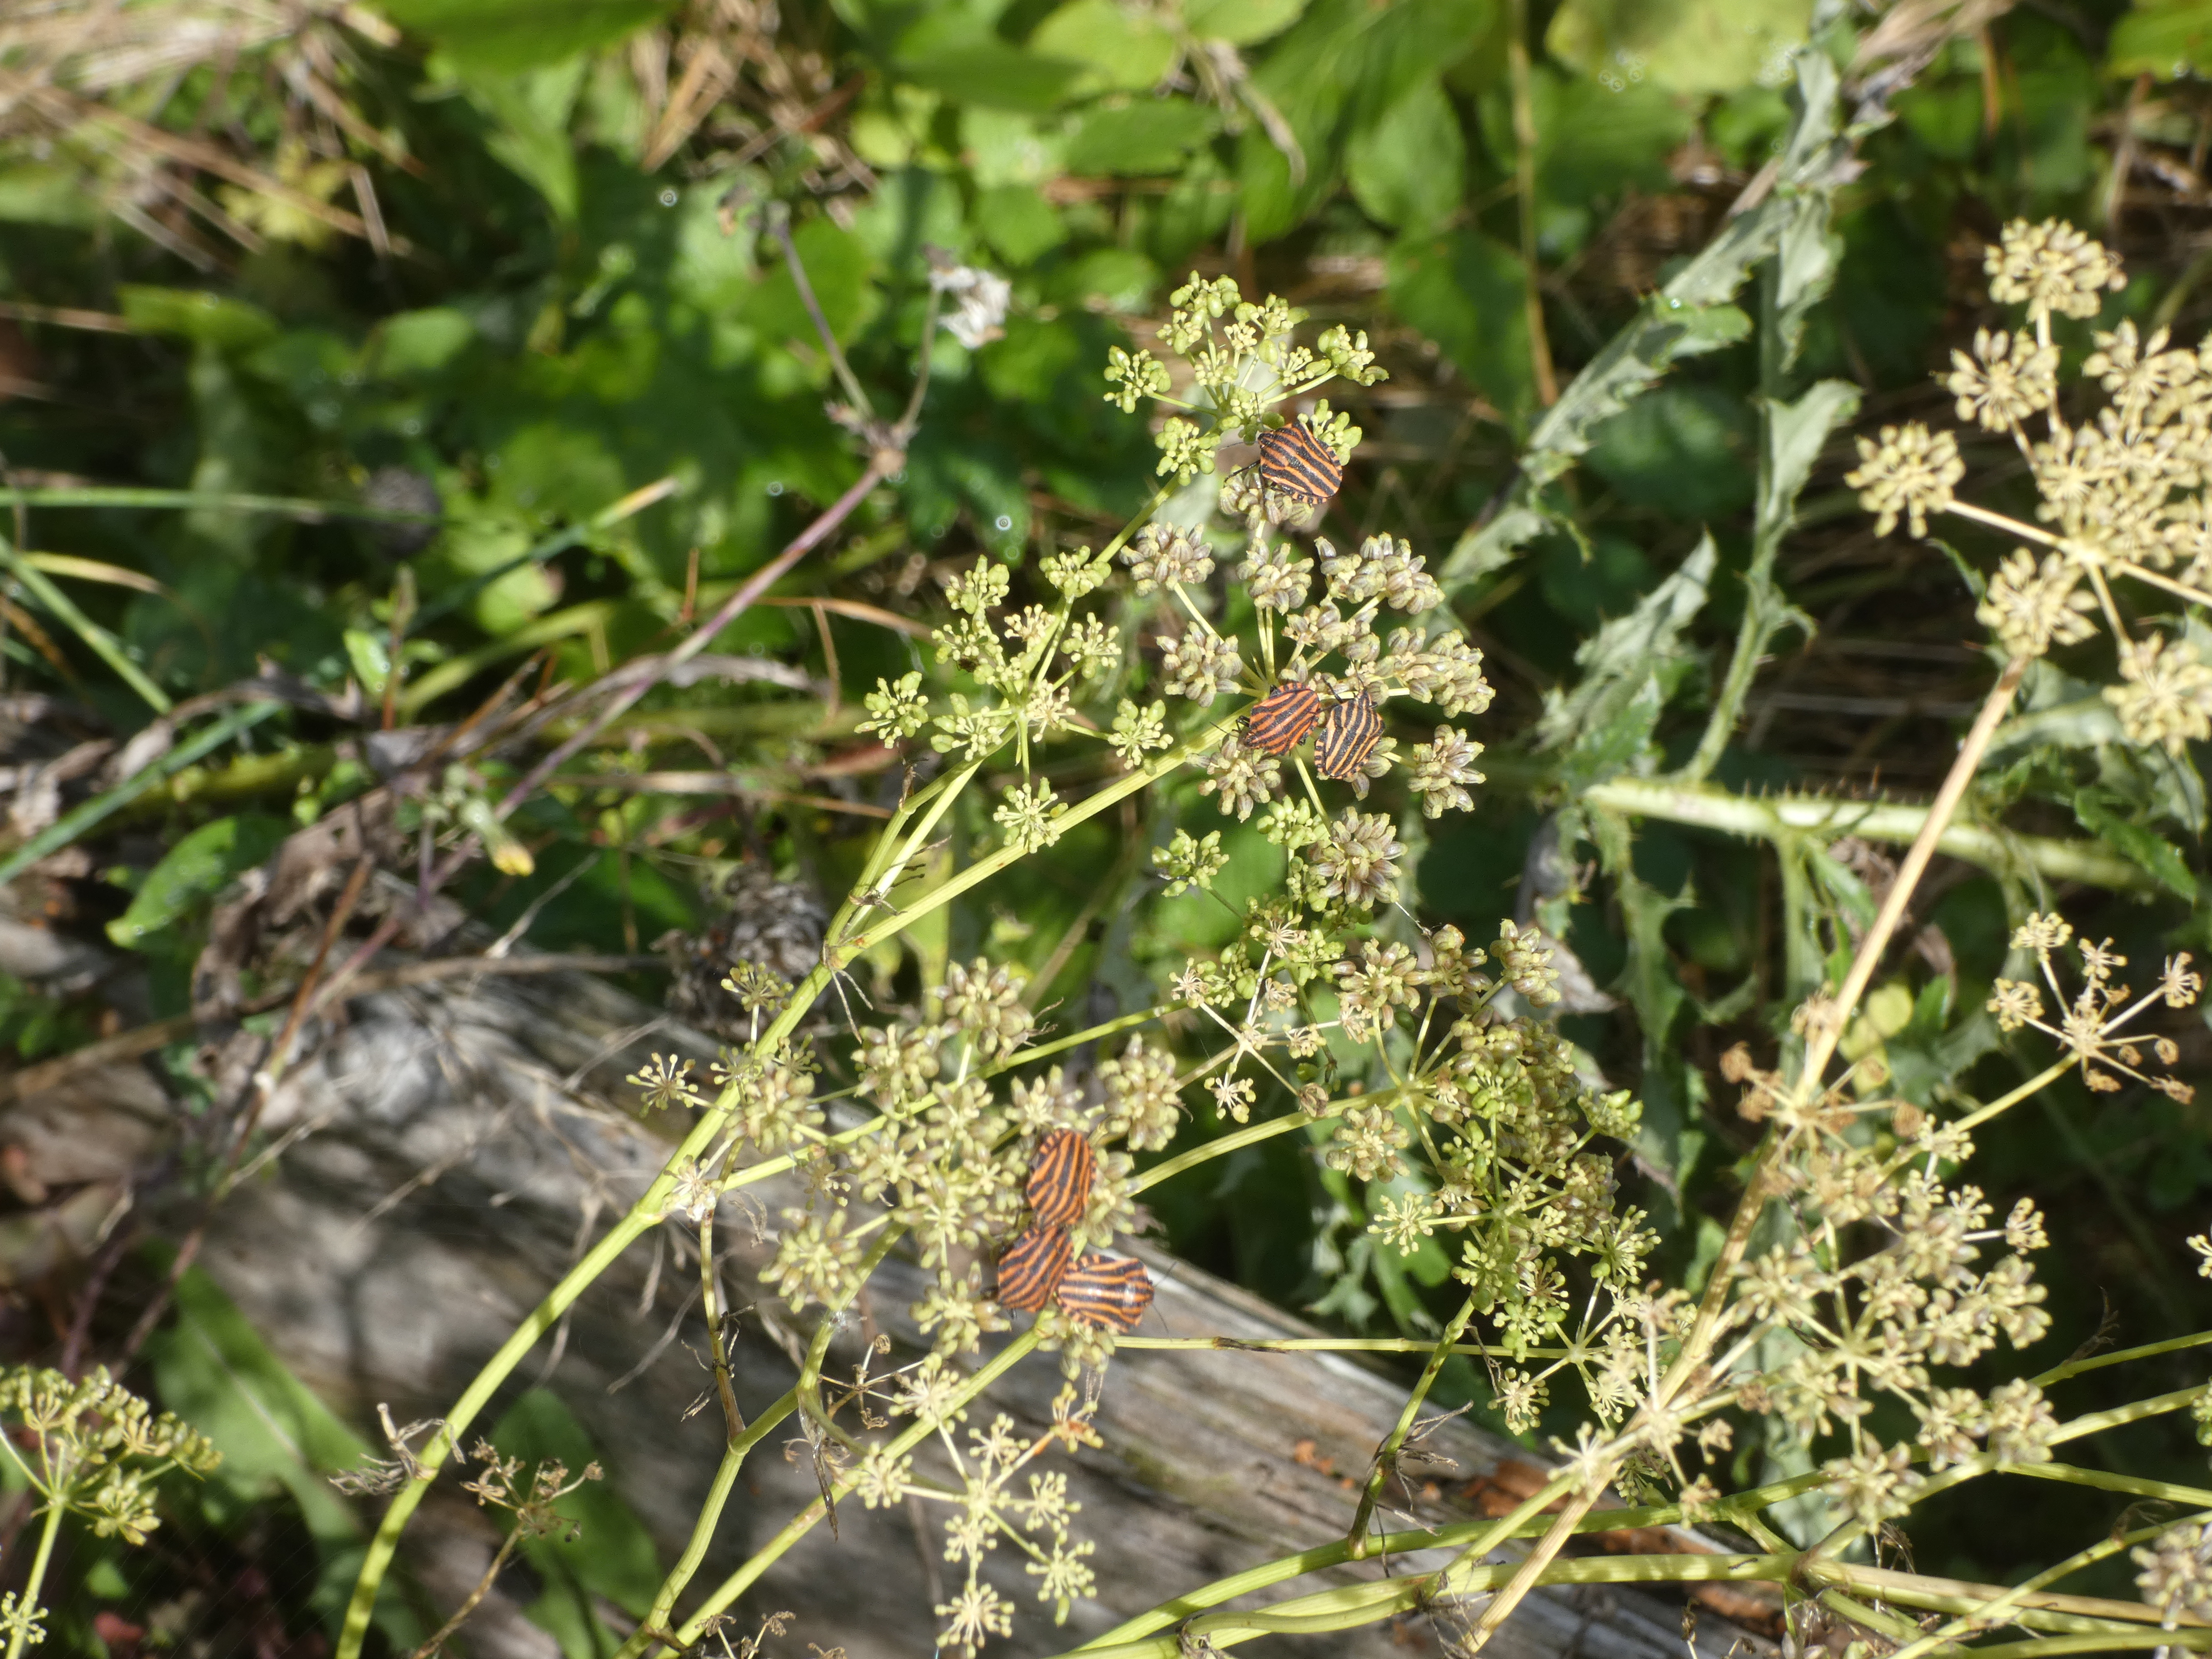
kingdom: Animalia
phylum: Arthropoda
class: Insecta
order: Hemiptera
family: Pentatomidae
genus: Graphosoma
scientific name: Graphosoma italicum
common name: Stribetæge
